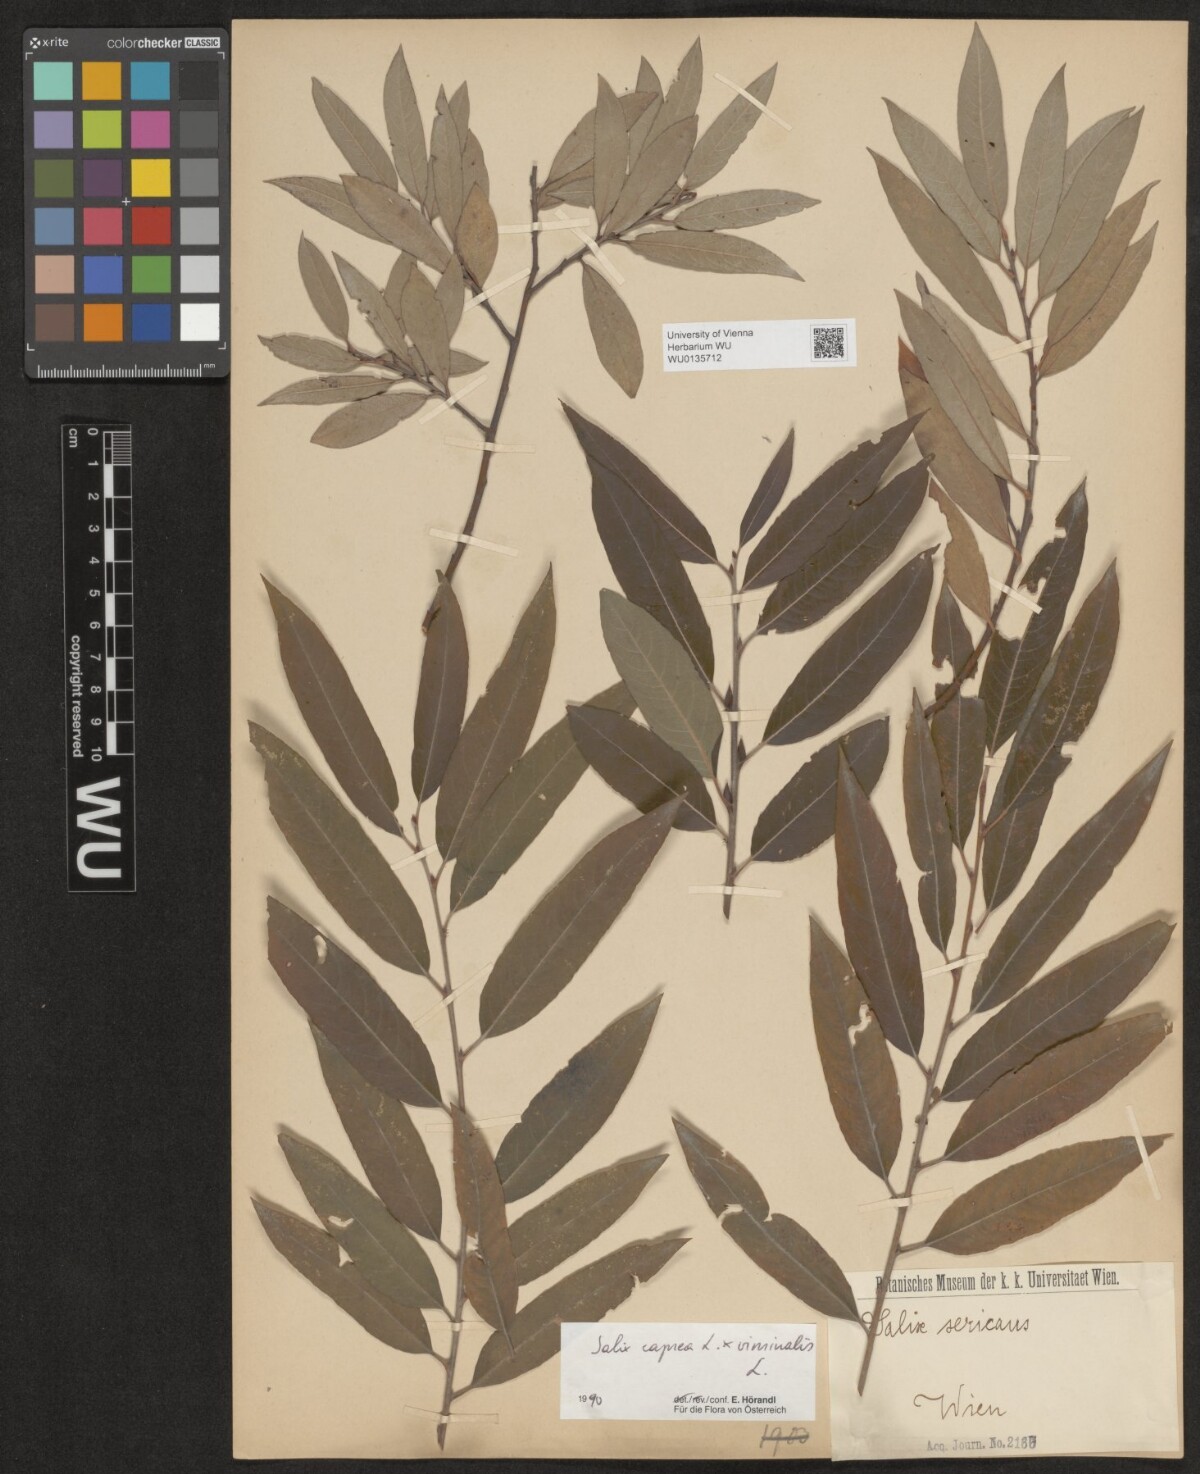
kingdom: Plantae
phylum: Tracheophyta
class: Magnoliopsida
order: Malpighiales
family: Salicaceae
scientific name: Salicaceae
